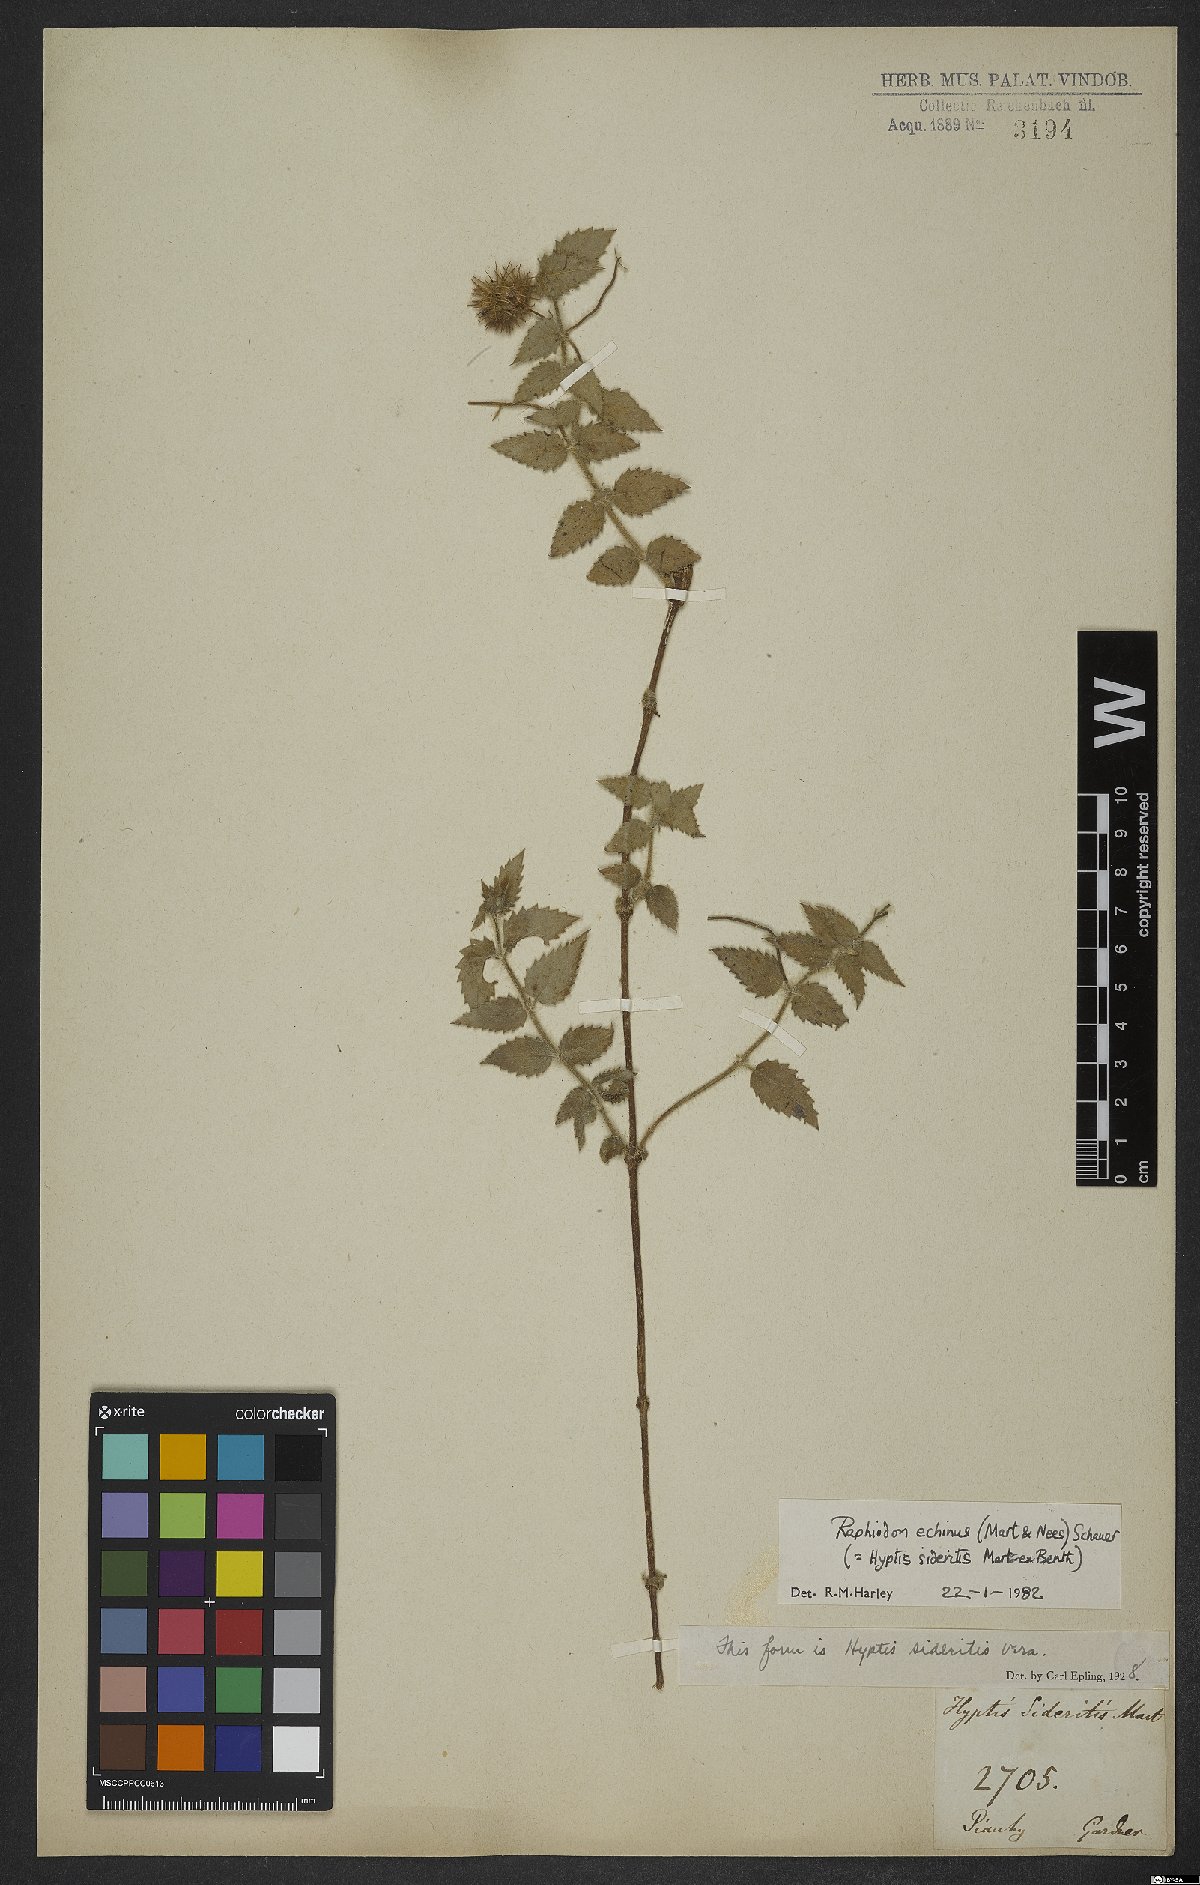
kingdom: Plantae
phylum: Tracheophyta
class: Magnoliopsida
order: Lamiales
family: Lamiaceae
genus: Rhaphiodon
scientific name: Rhaphiodon echinus
